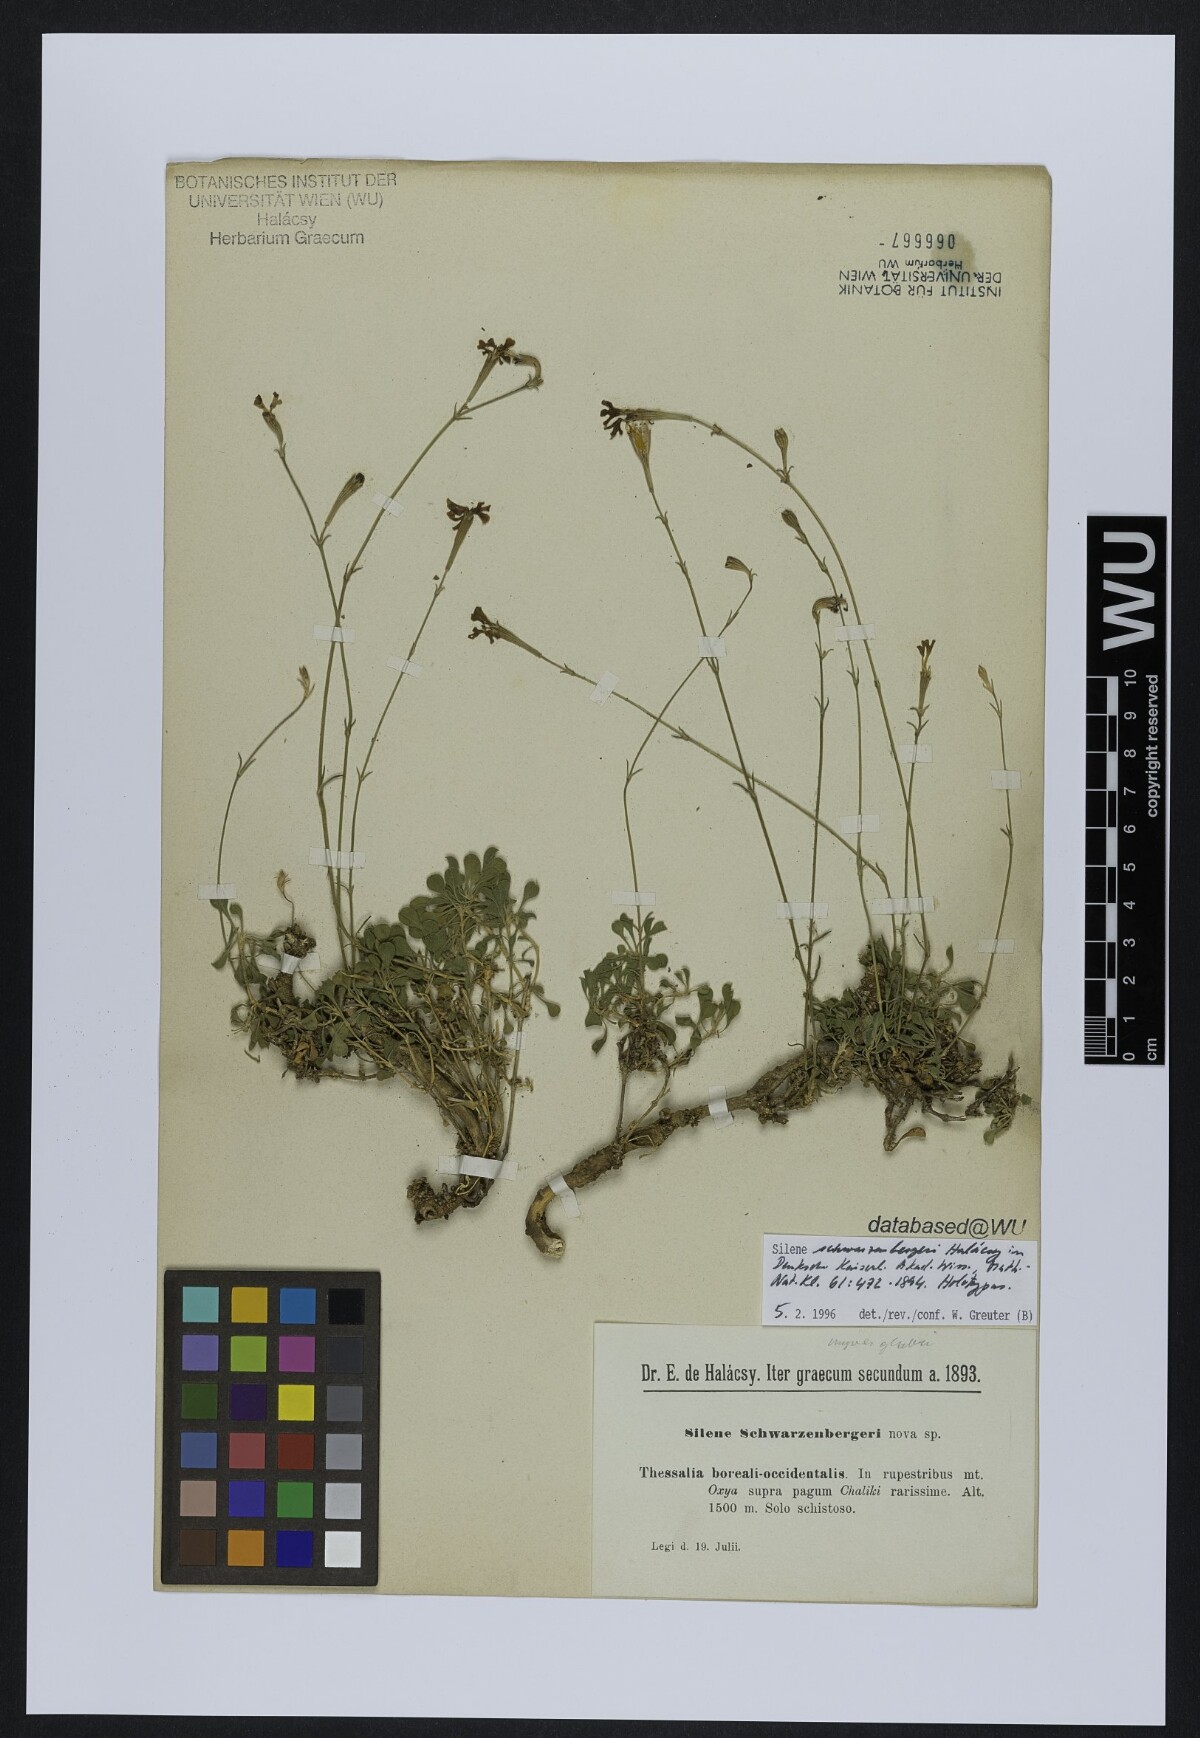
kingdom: Plantae
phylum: Tracheophyta
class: Magnoliopsida
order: Caryophyllales
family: Caryophyllaceae
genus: Silene
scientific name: Silene schwarzenbergeri
